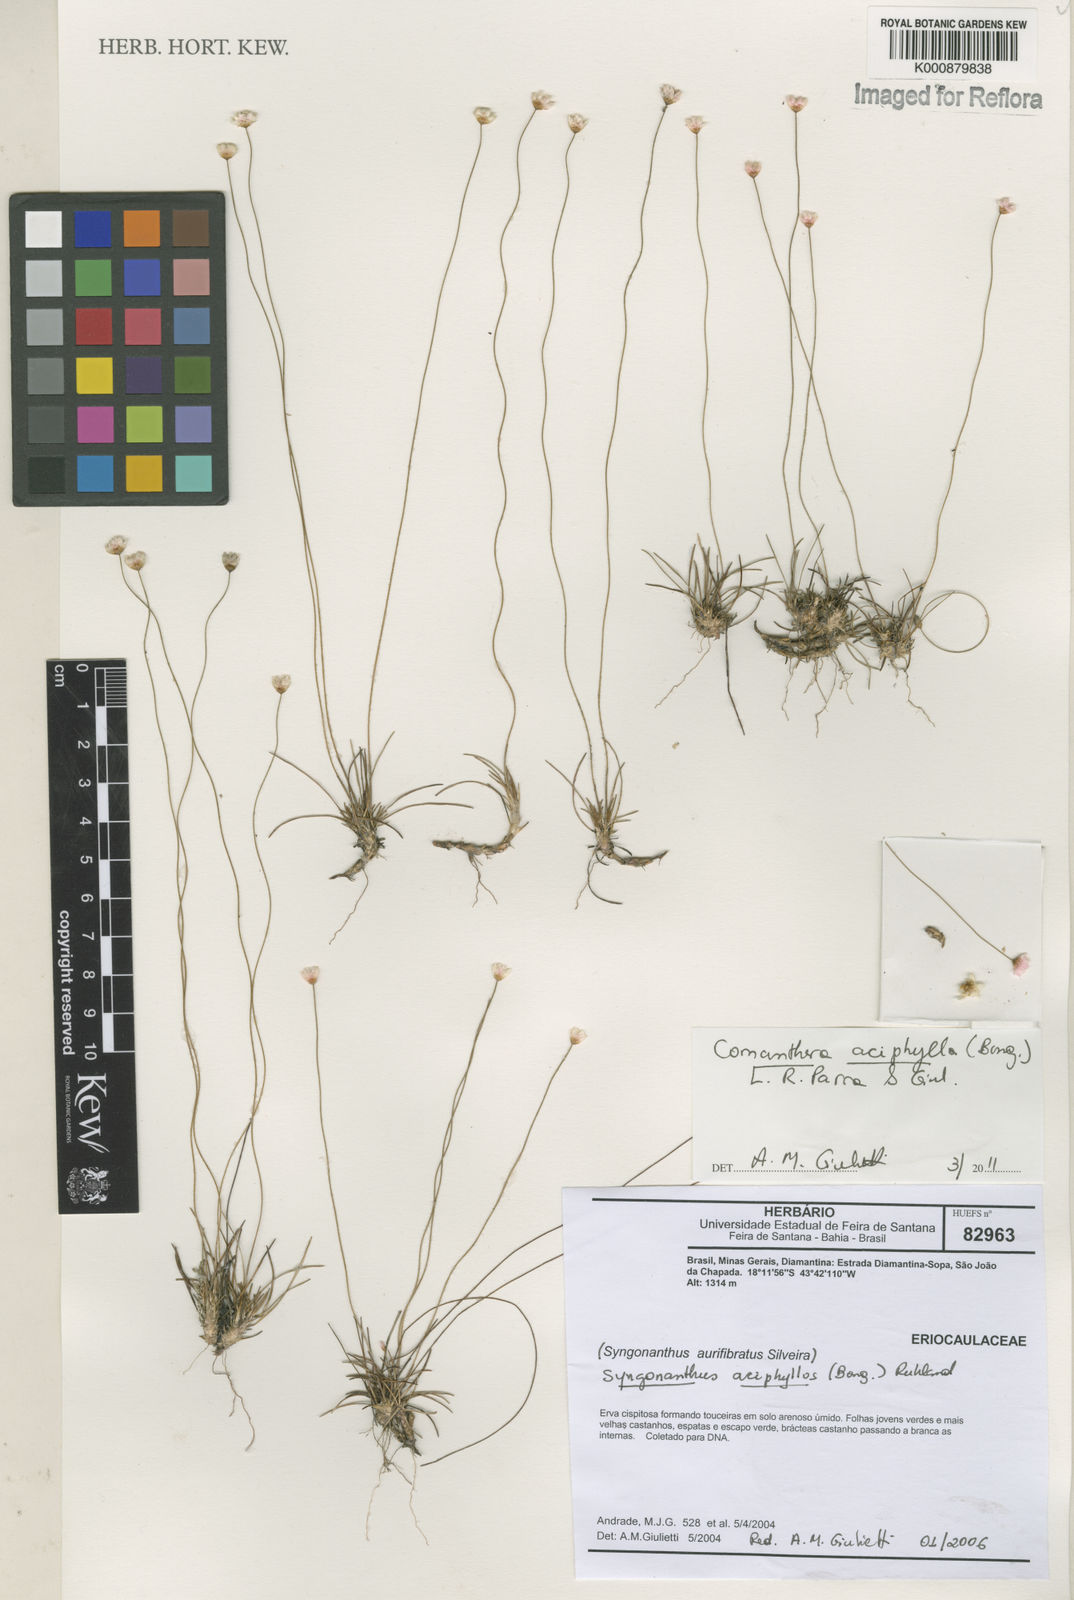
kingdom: Plantae
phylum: Tracheophyta
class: Liliopsida
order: Poales
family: Eriocaulaceae
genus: Comanthera
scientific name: Comanthera aciphylla
